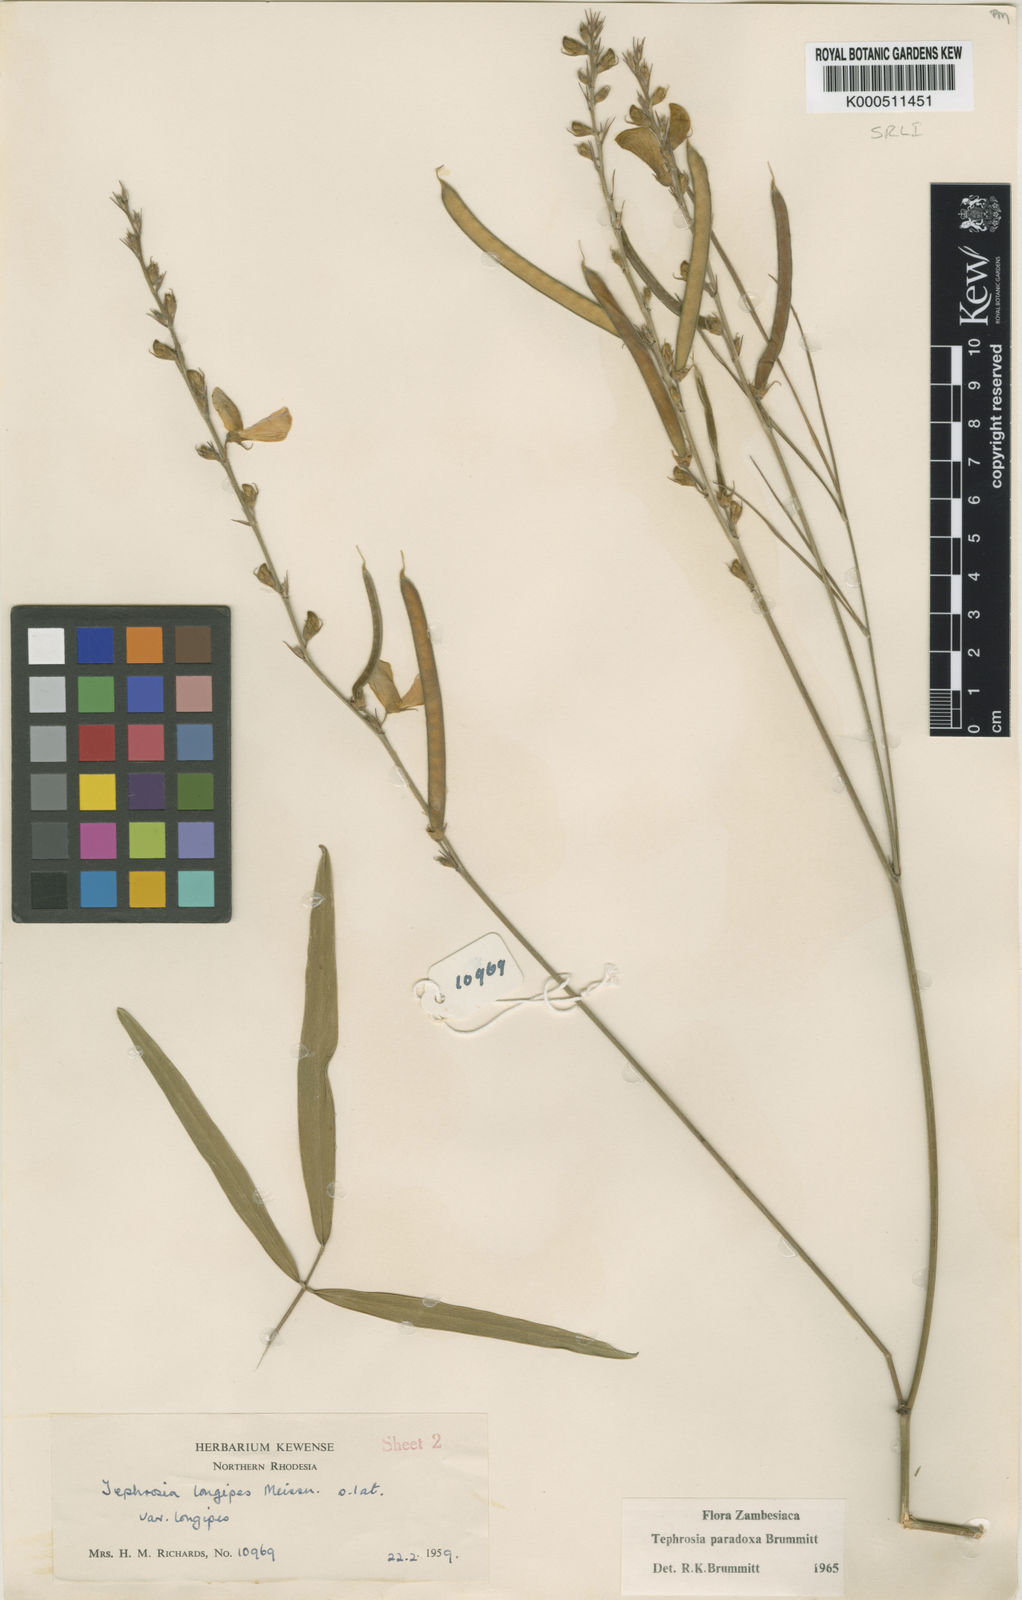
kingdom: Plantae
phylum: Tracheophyta
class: Magnoliopsida
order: Fabales
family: Fabaceae
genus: Tephrosia
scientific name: Tephrosia paradoxa
